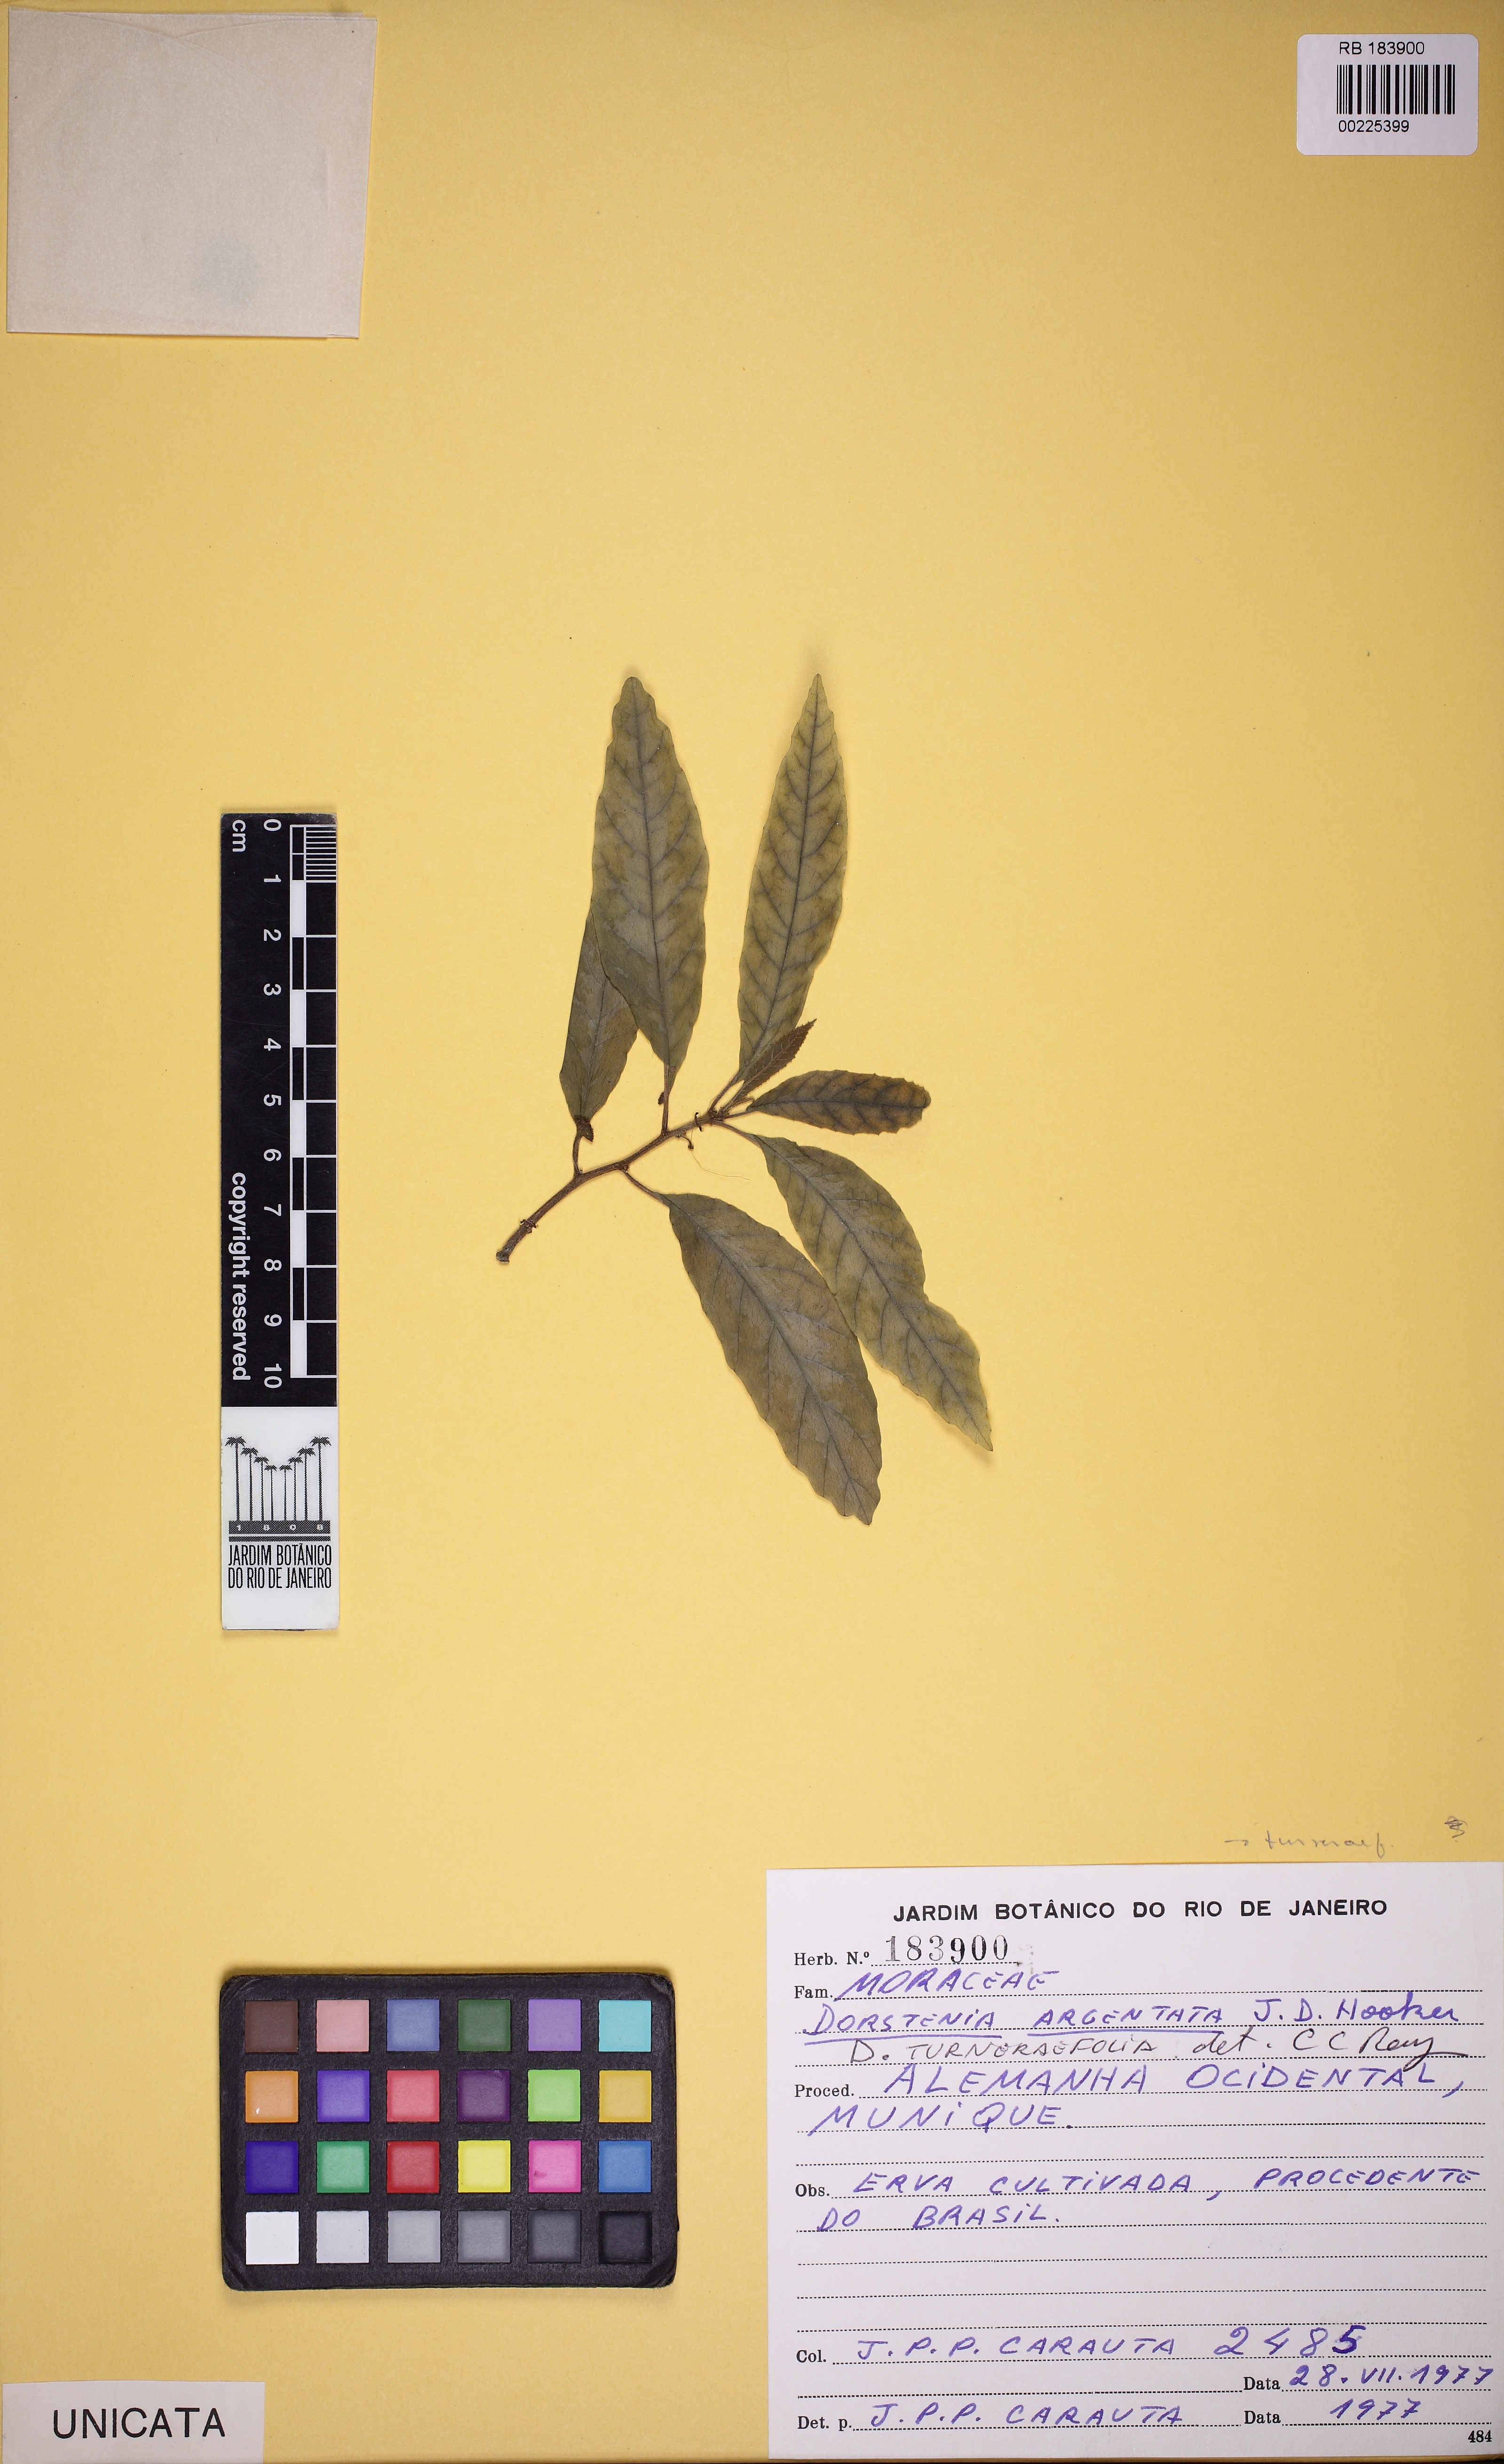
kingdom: Plantae
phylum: Tracheophyta
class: Magnoliopsida
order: Rosales
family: Moraceae
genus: Dorstenia
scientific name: Dorstenia turnerifolia
